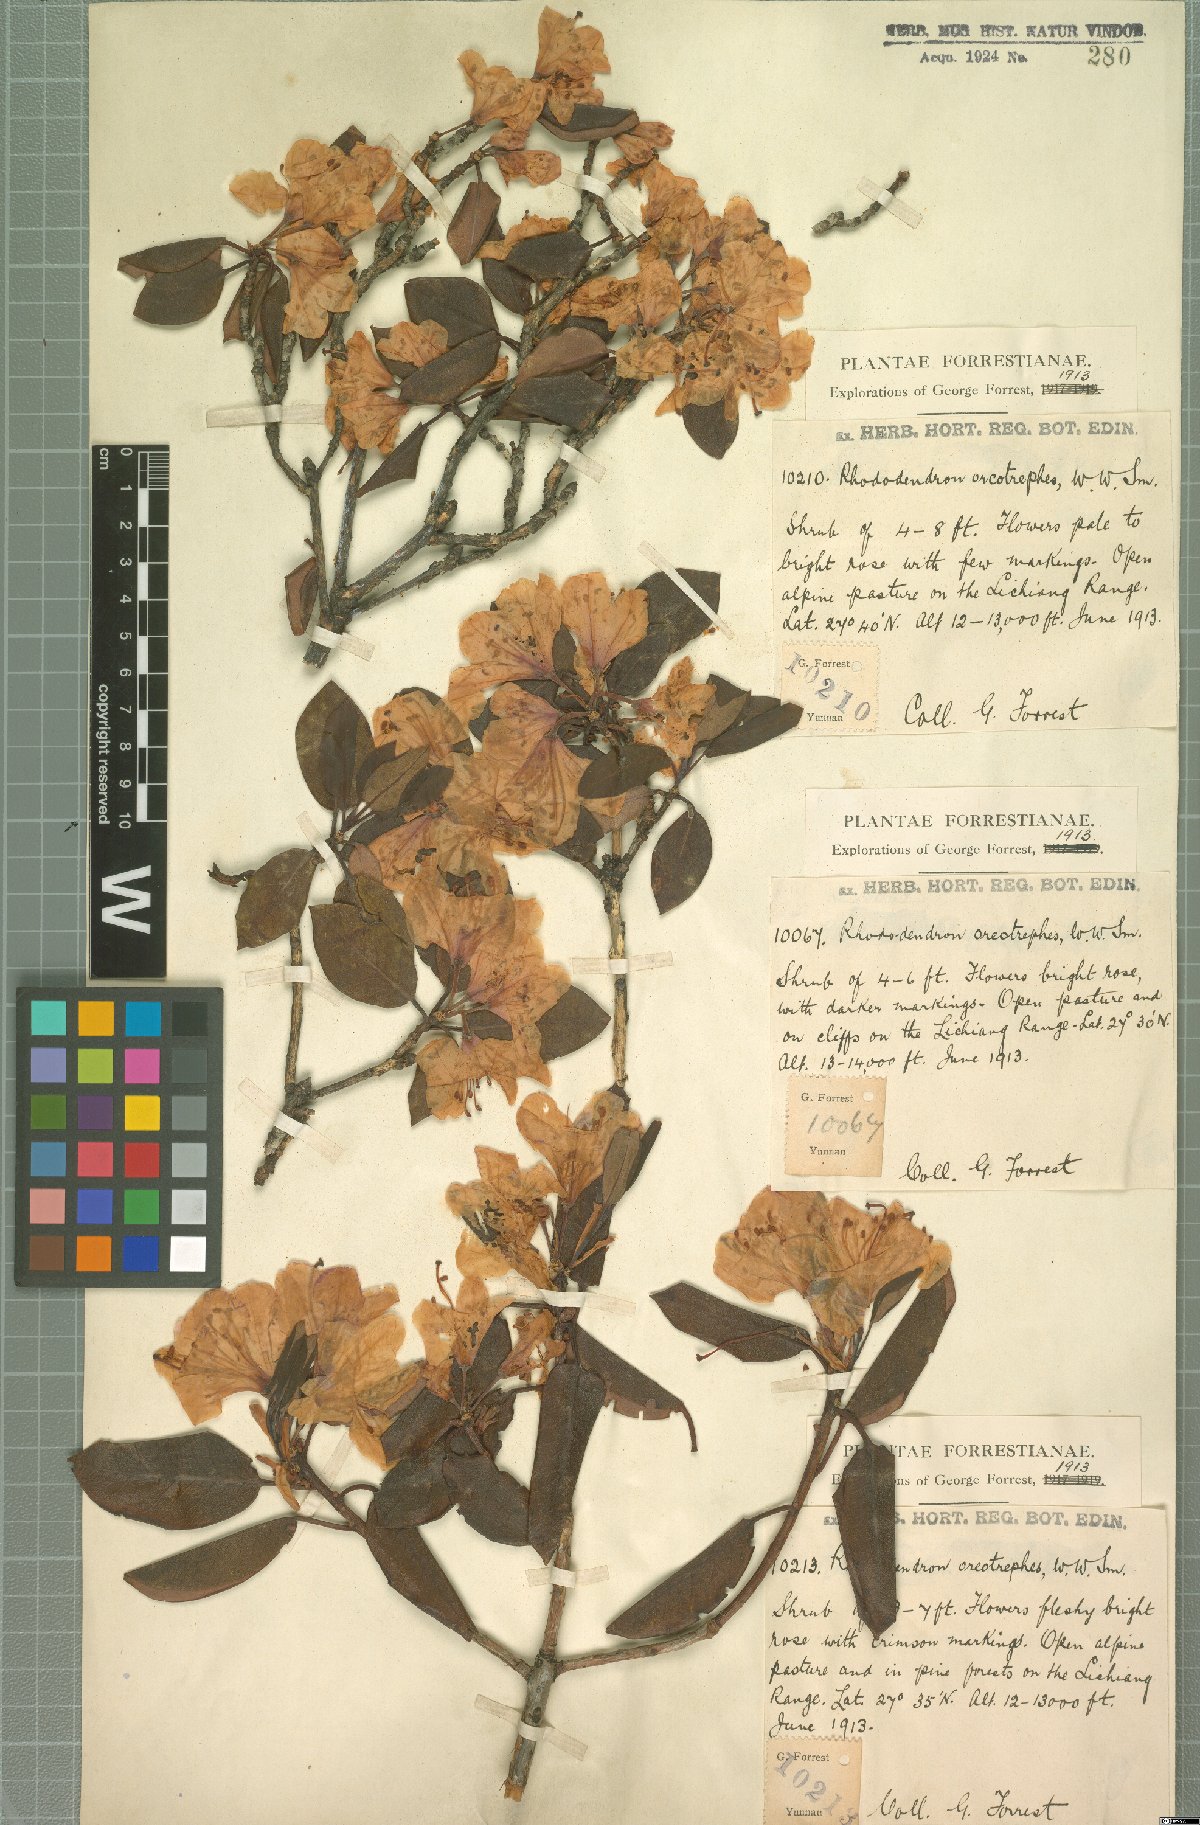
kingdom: Plantae
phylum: Tracheophyta
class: Magnoliopsida
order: Ericales
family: Ericaceae
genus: Rhododendron
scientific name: Rhododendron oreotrephes
